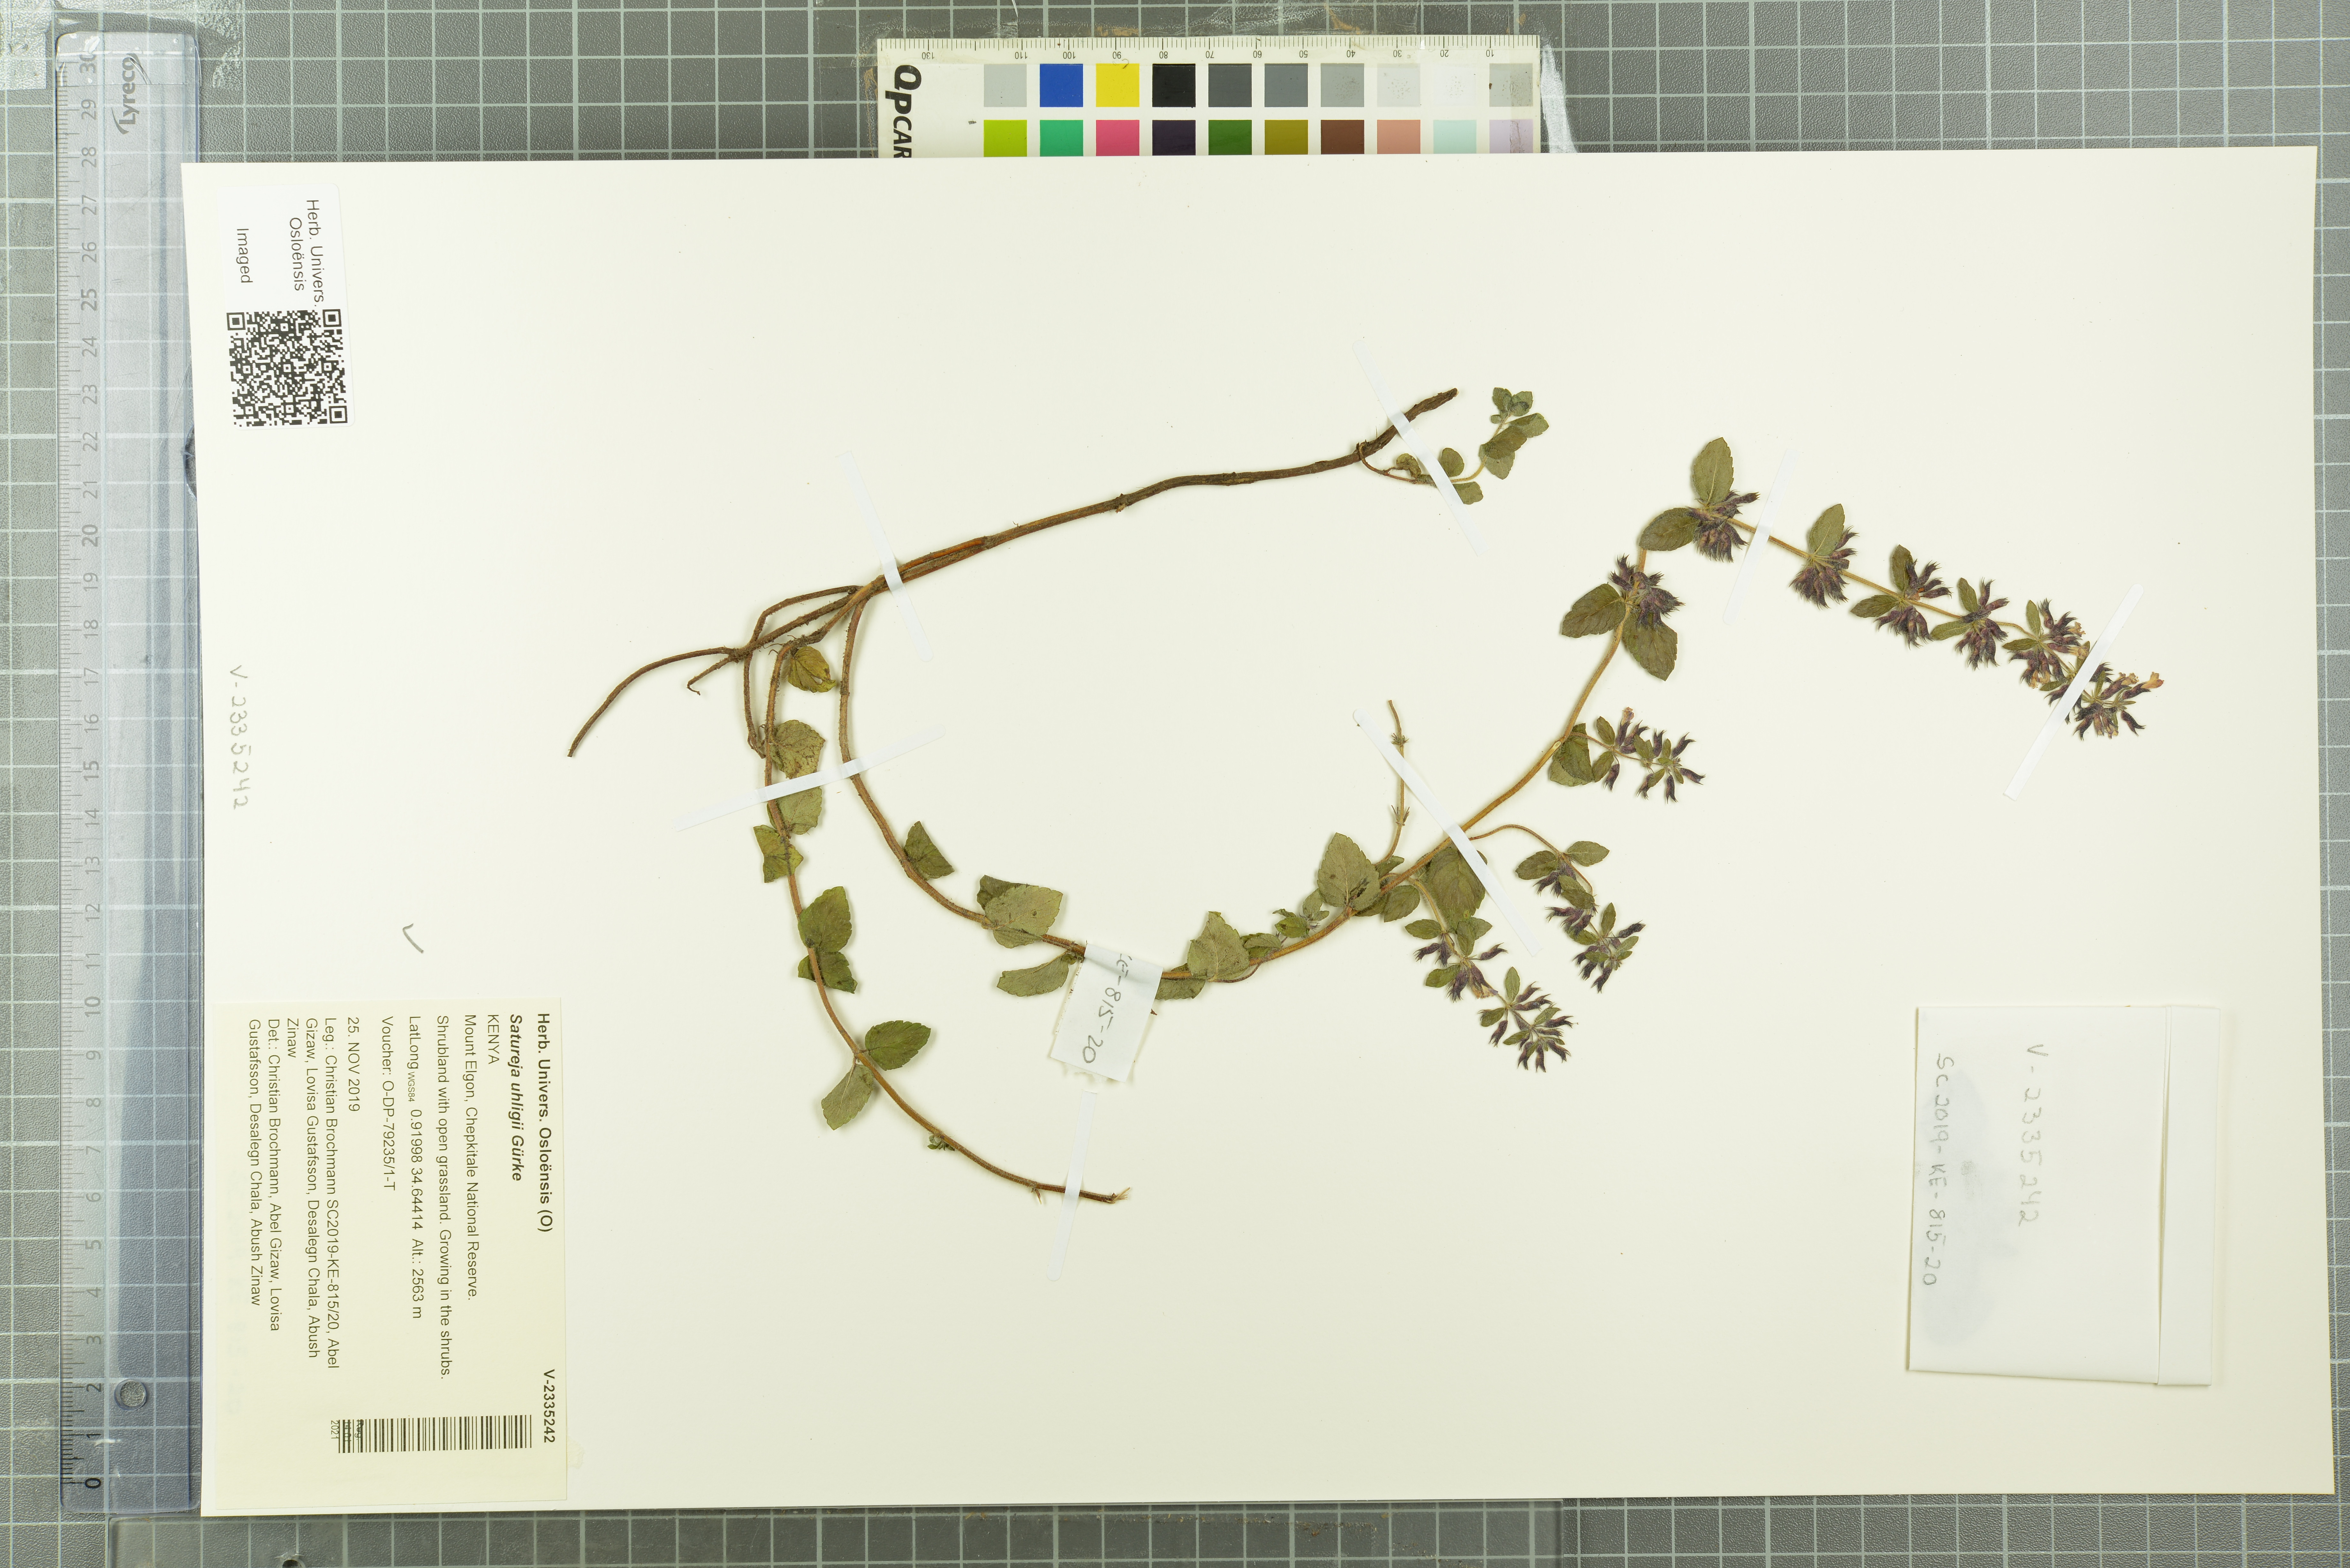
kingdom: Plantae
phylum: Tracheophyta
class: Magnoliopsida
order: Lamiales
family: Lamiaceae
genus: Clinopodium
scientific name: Clinopodium uhligii
